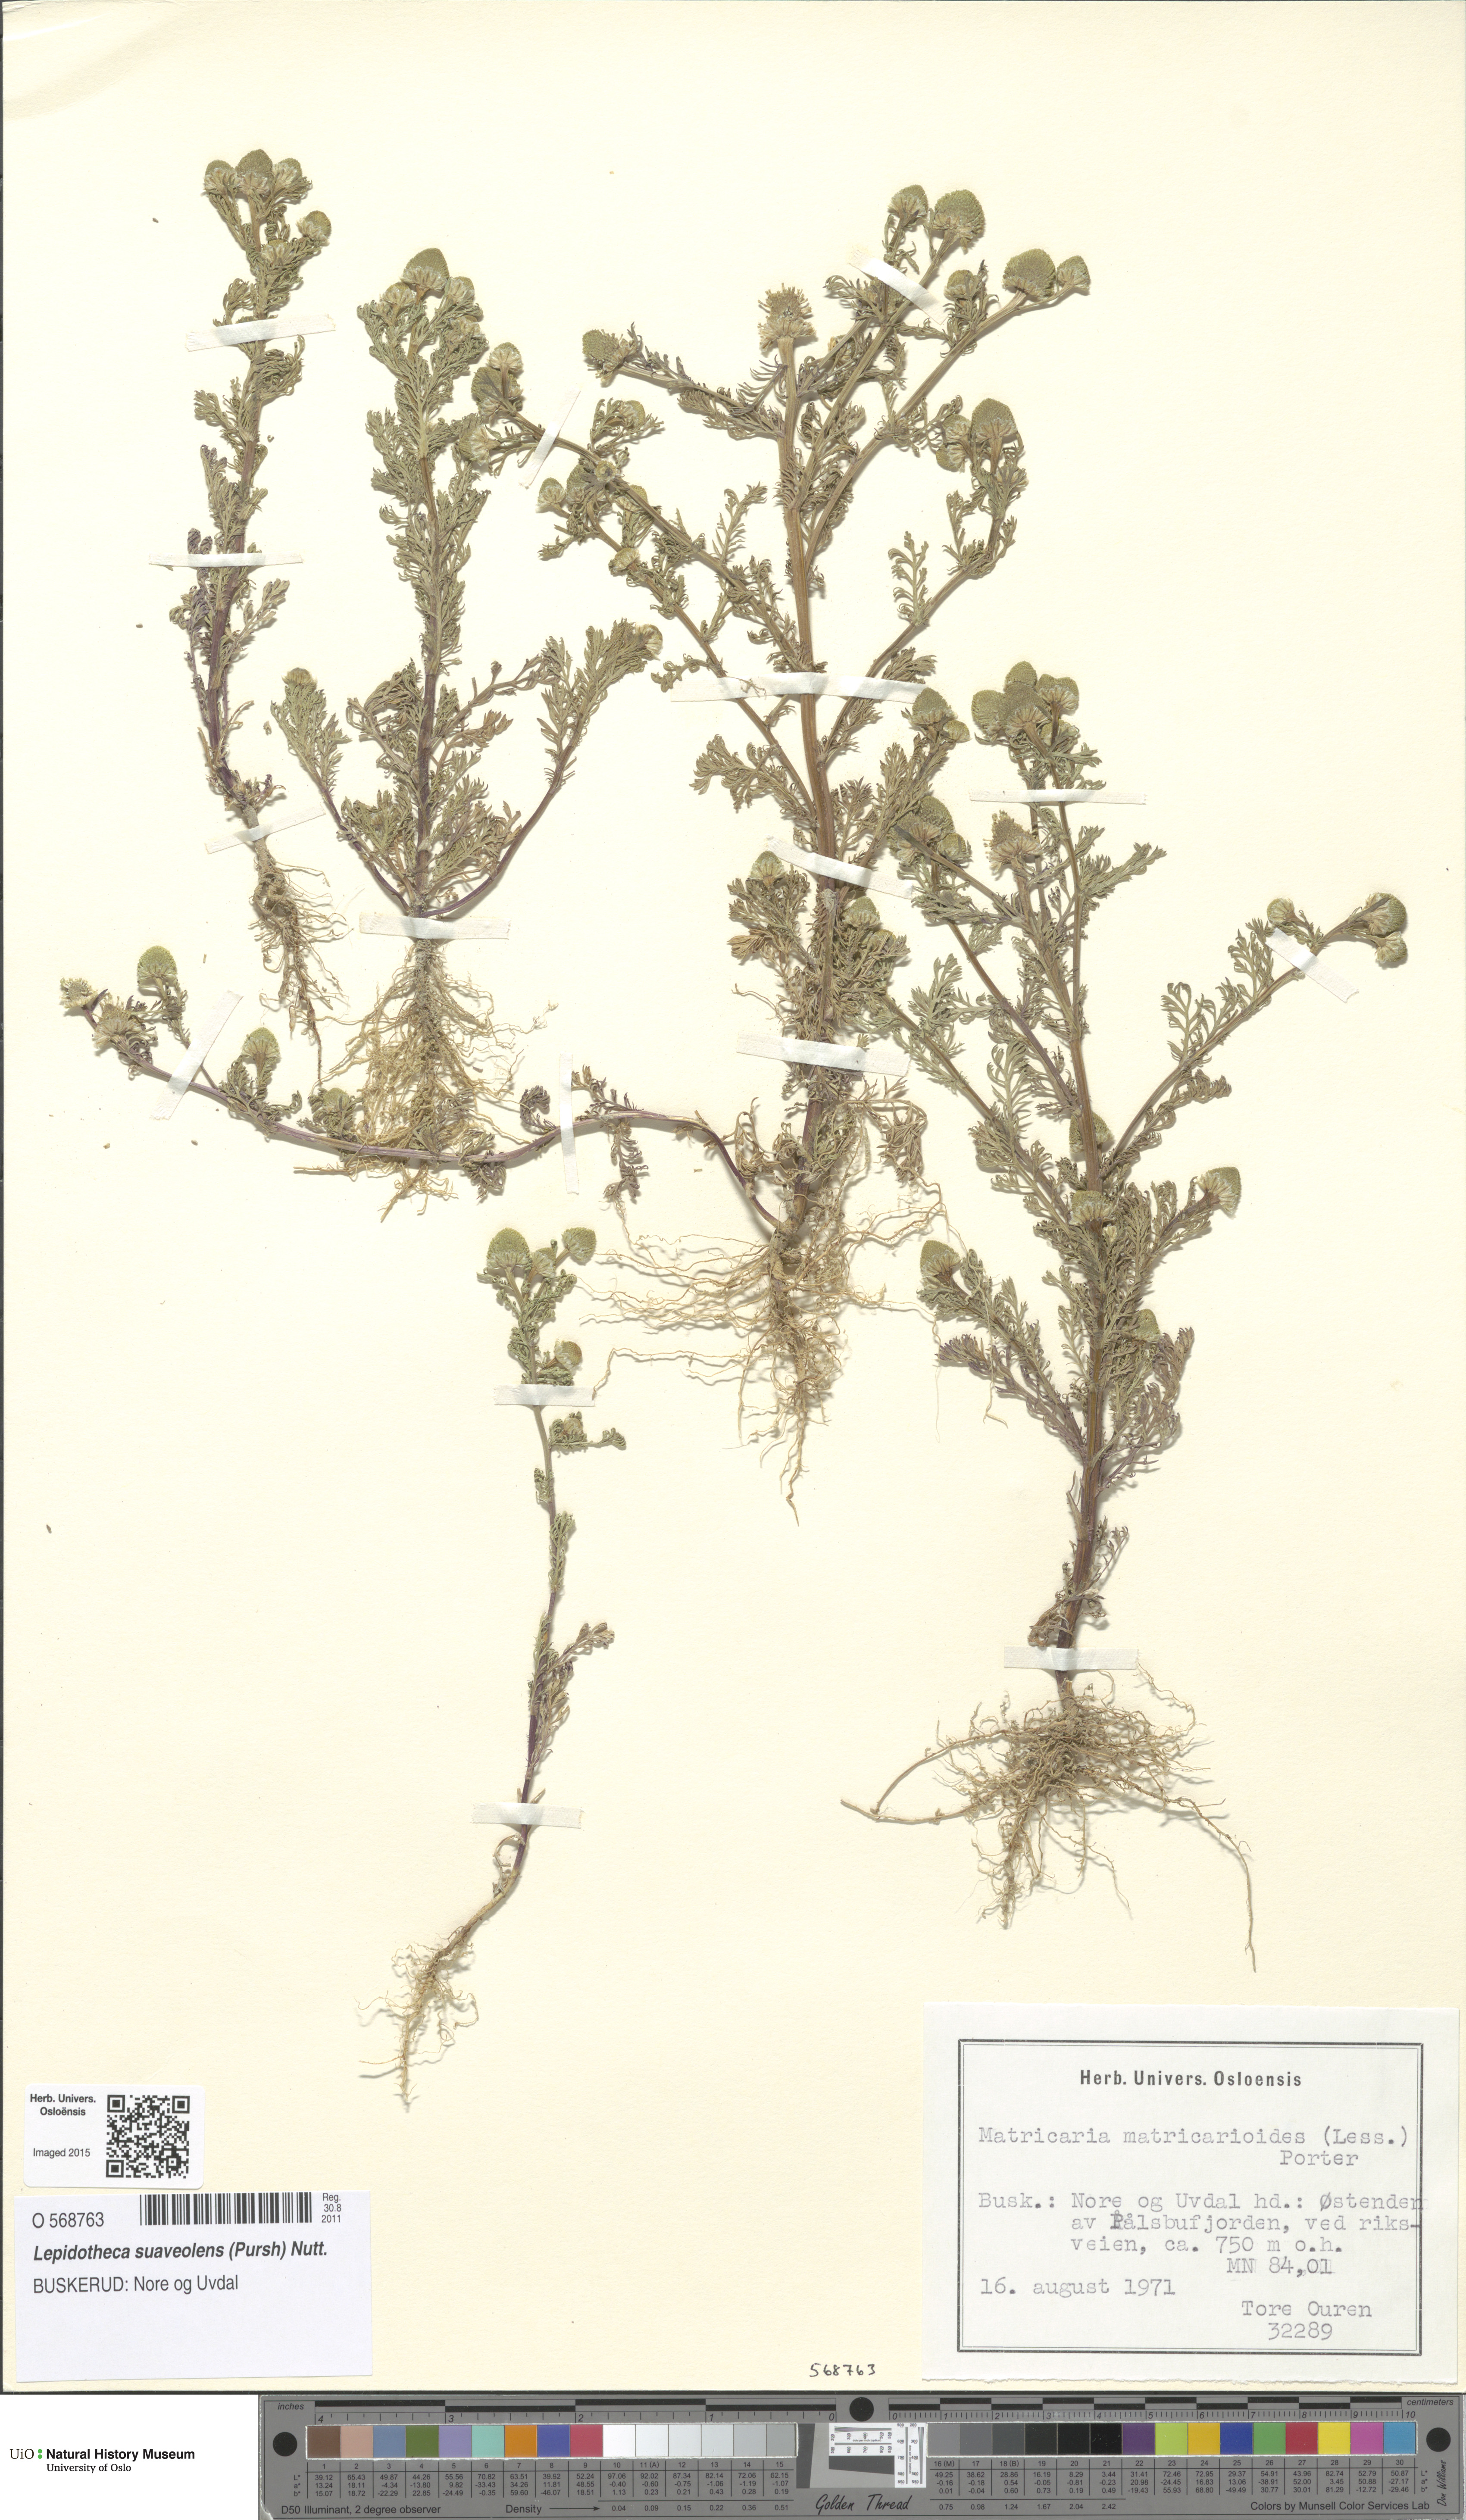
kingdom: Plantae
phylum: Tracheophyta
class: Magnoliopsida
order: Asterales
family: Asteraceae
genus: Matricaria
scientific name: Matricaria discoidea
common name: Disc mayweed
